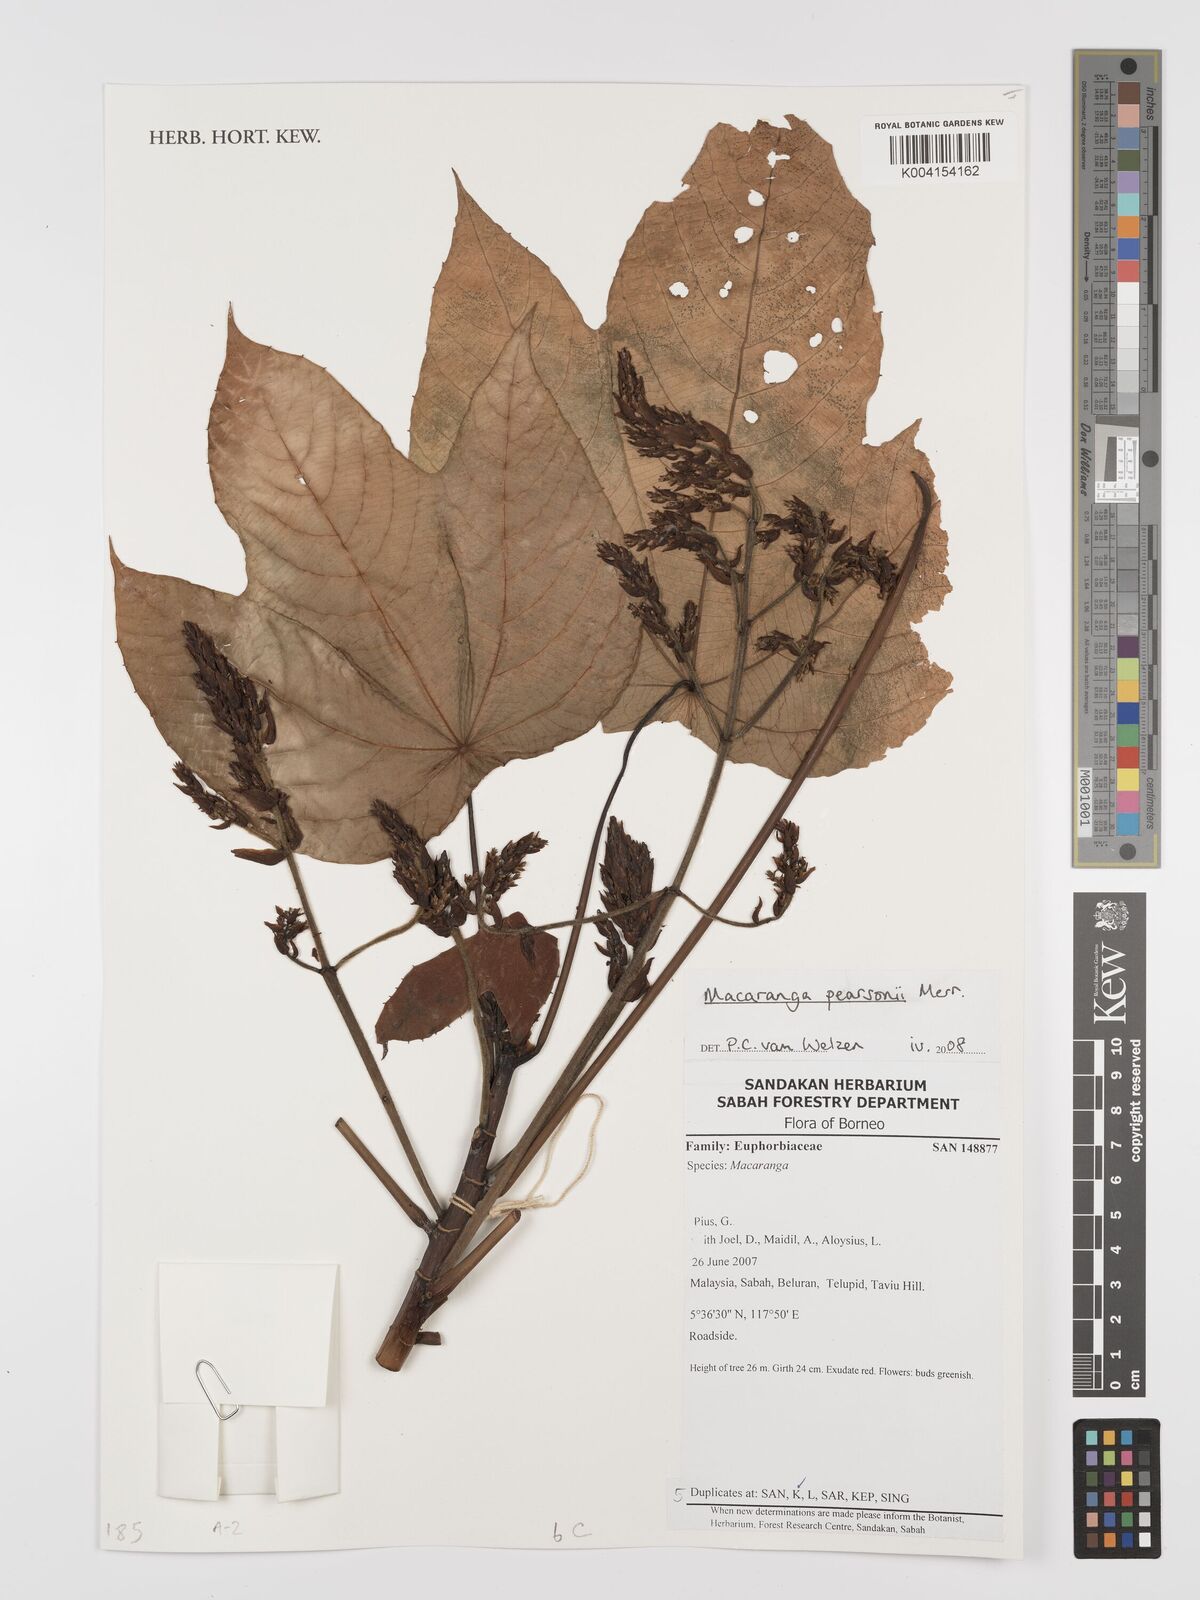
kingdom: Plantae
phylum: Tracheophyta
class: Magnoliopsida
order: Malpighiales
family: Euphorbiaceae
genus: Macaranga
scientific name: Macaranga pearsonii
